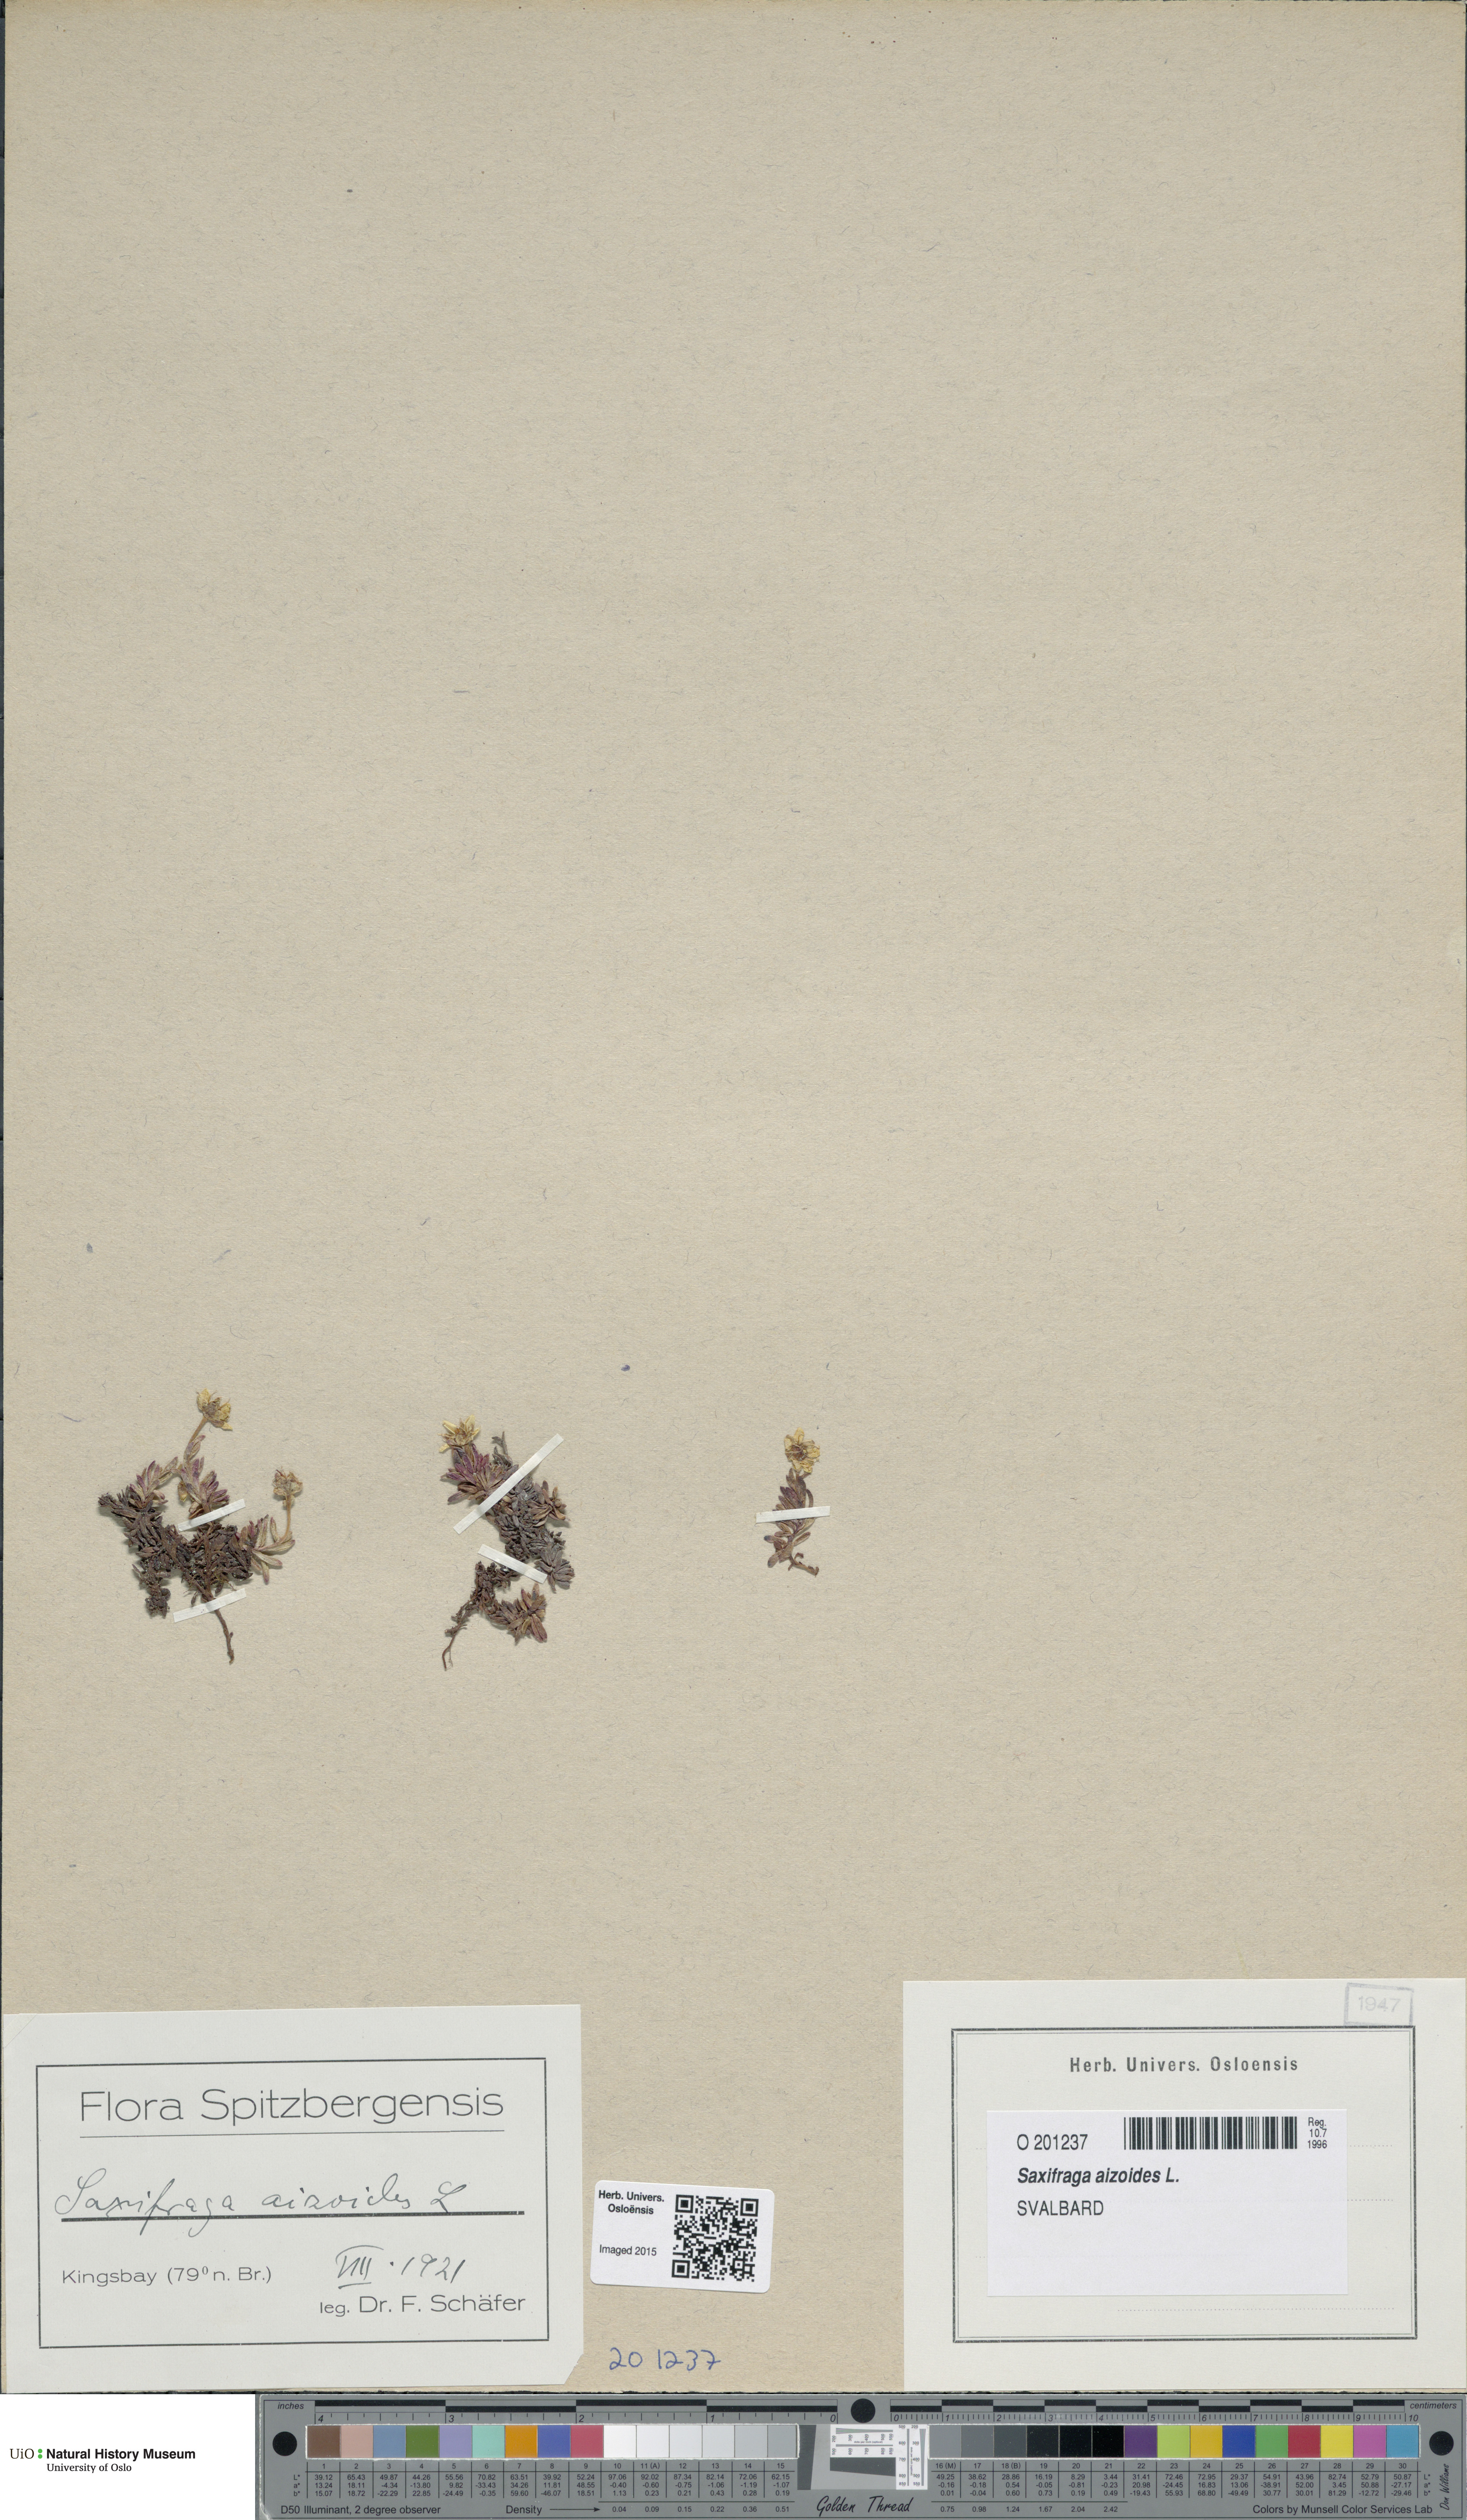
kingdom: Plantae
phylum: Tracheophyta
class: Magnoliopsida
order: Saxifragales
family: Saxifragaceae
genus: Saxifraga
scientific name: Saxifraga aizoides
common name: Yellow mountain saxifrage
